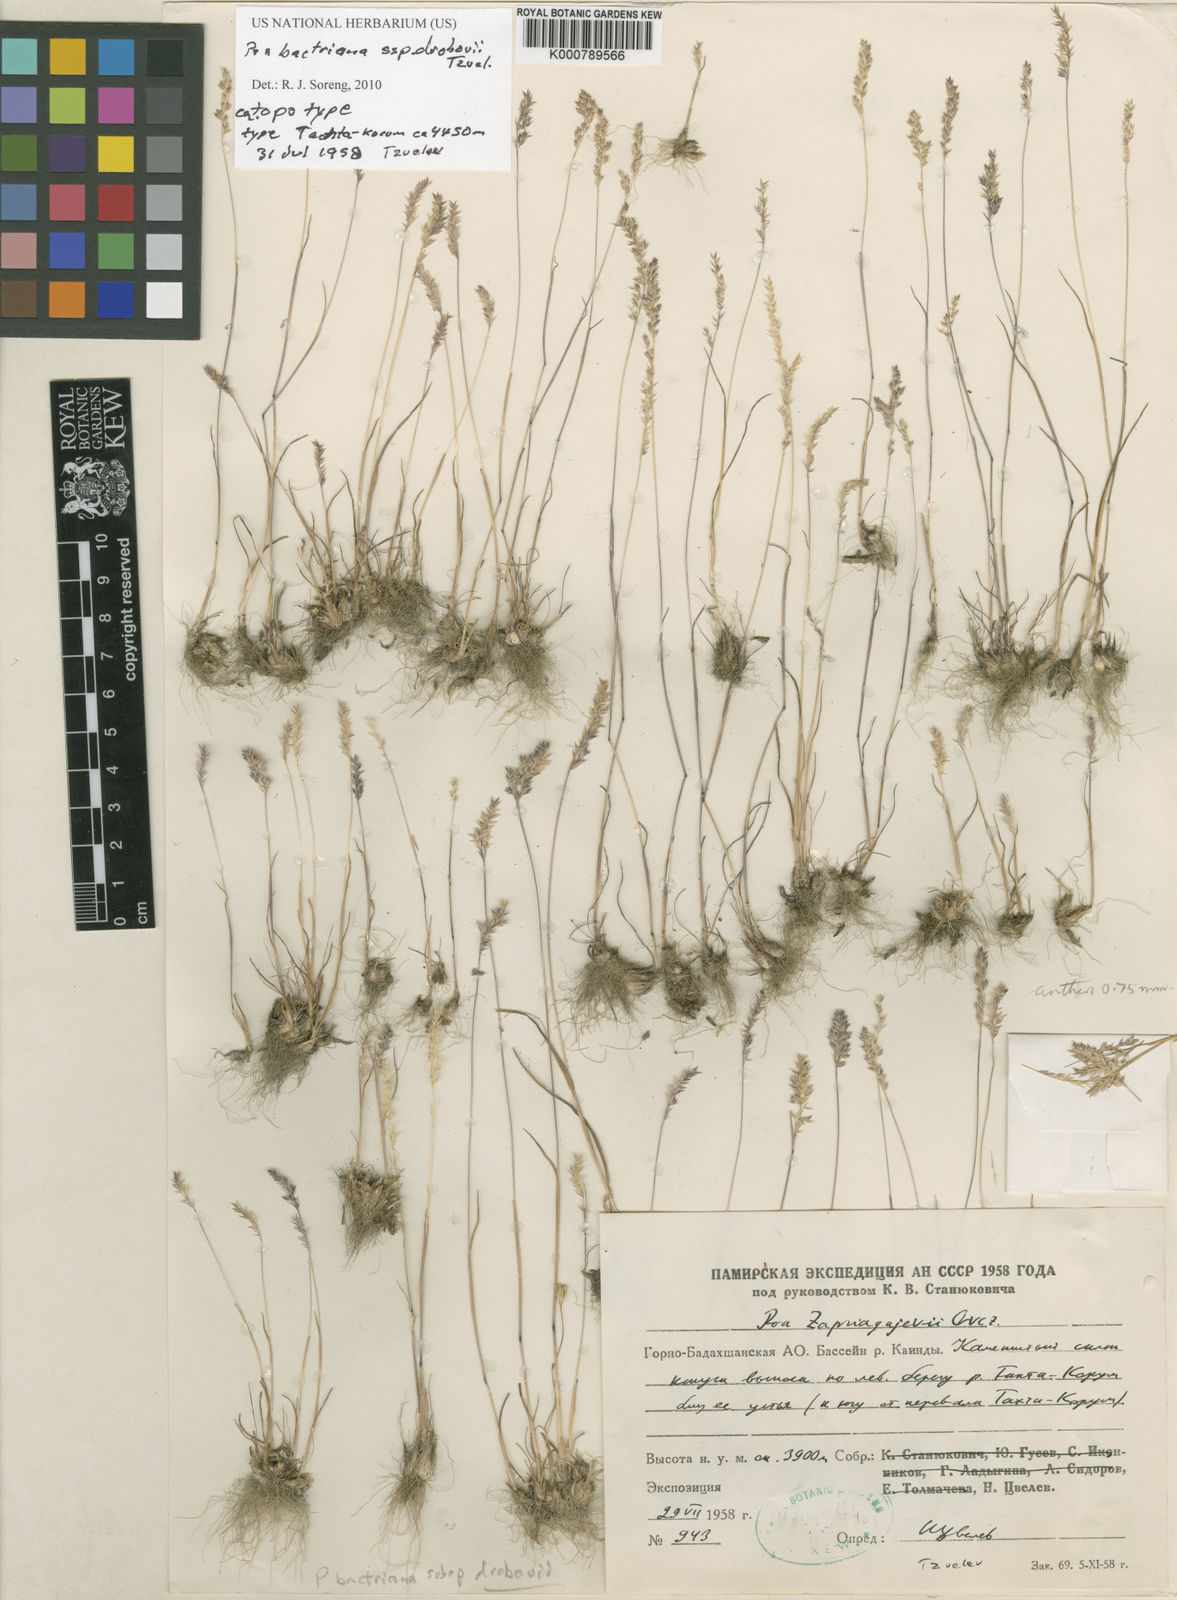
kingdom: Plantae
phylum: Tracheophyta
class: Liliopsida
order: Poales
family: Poaceae
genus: Poa
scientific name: Poa bactriana
